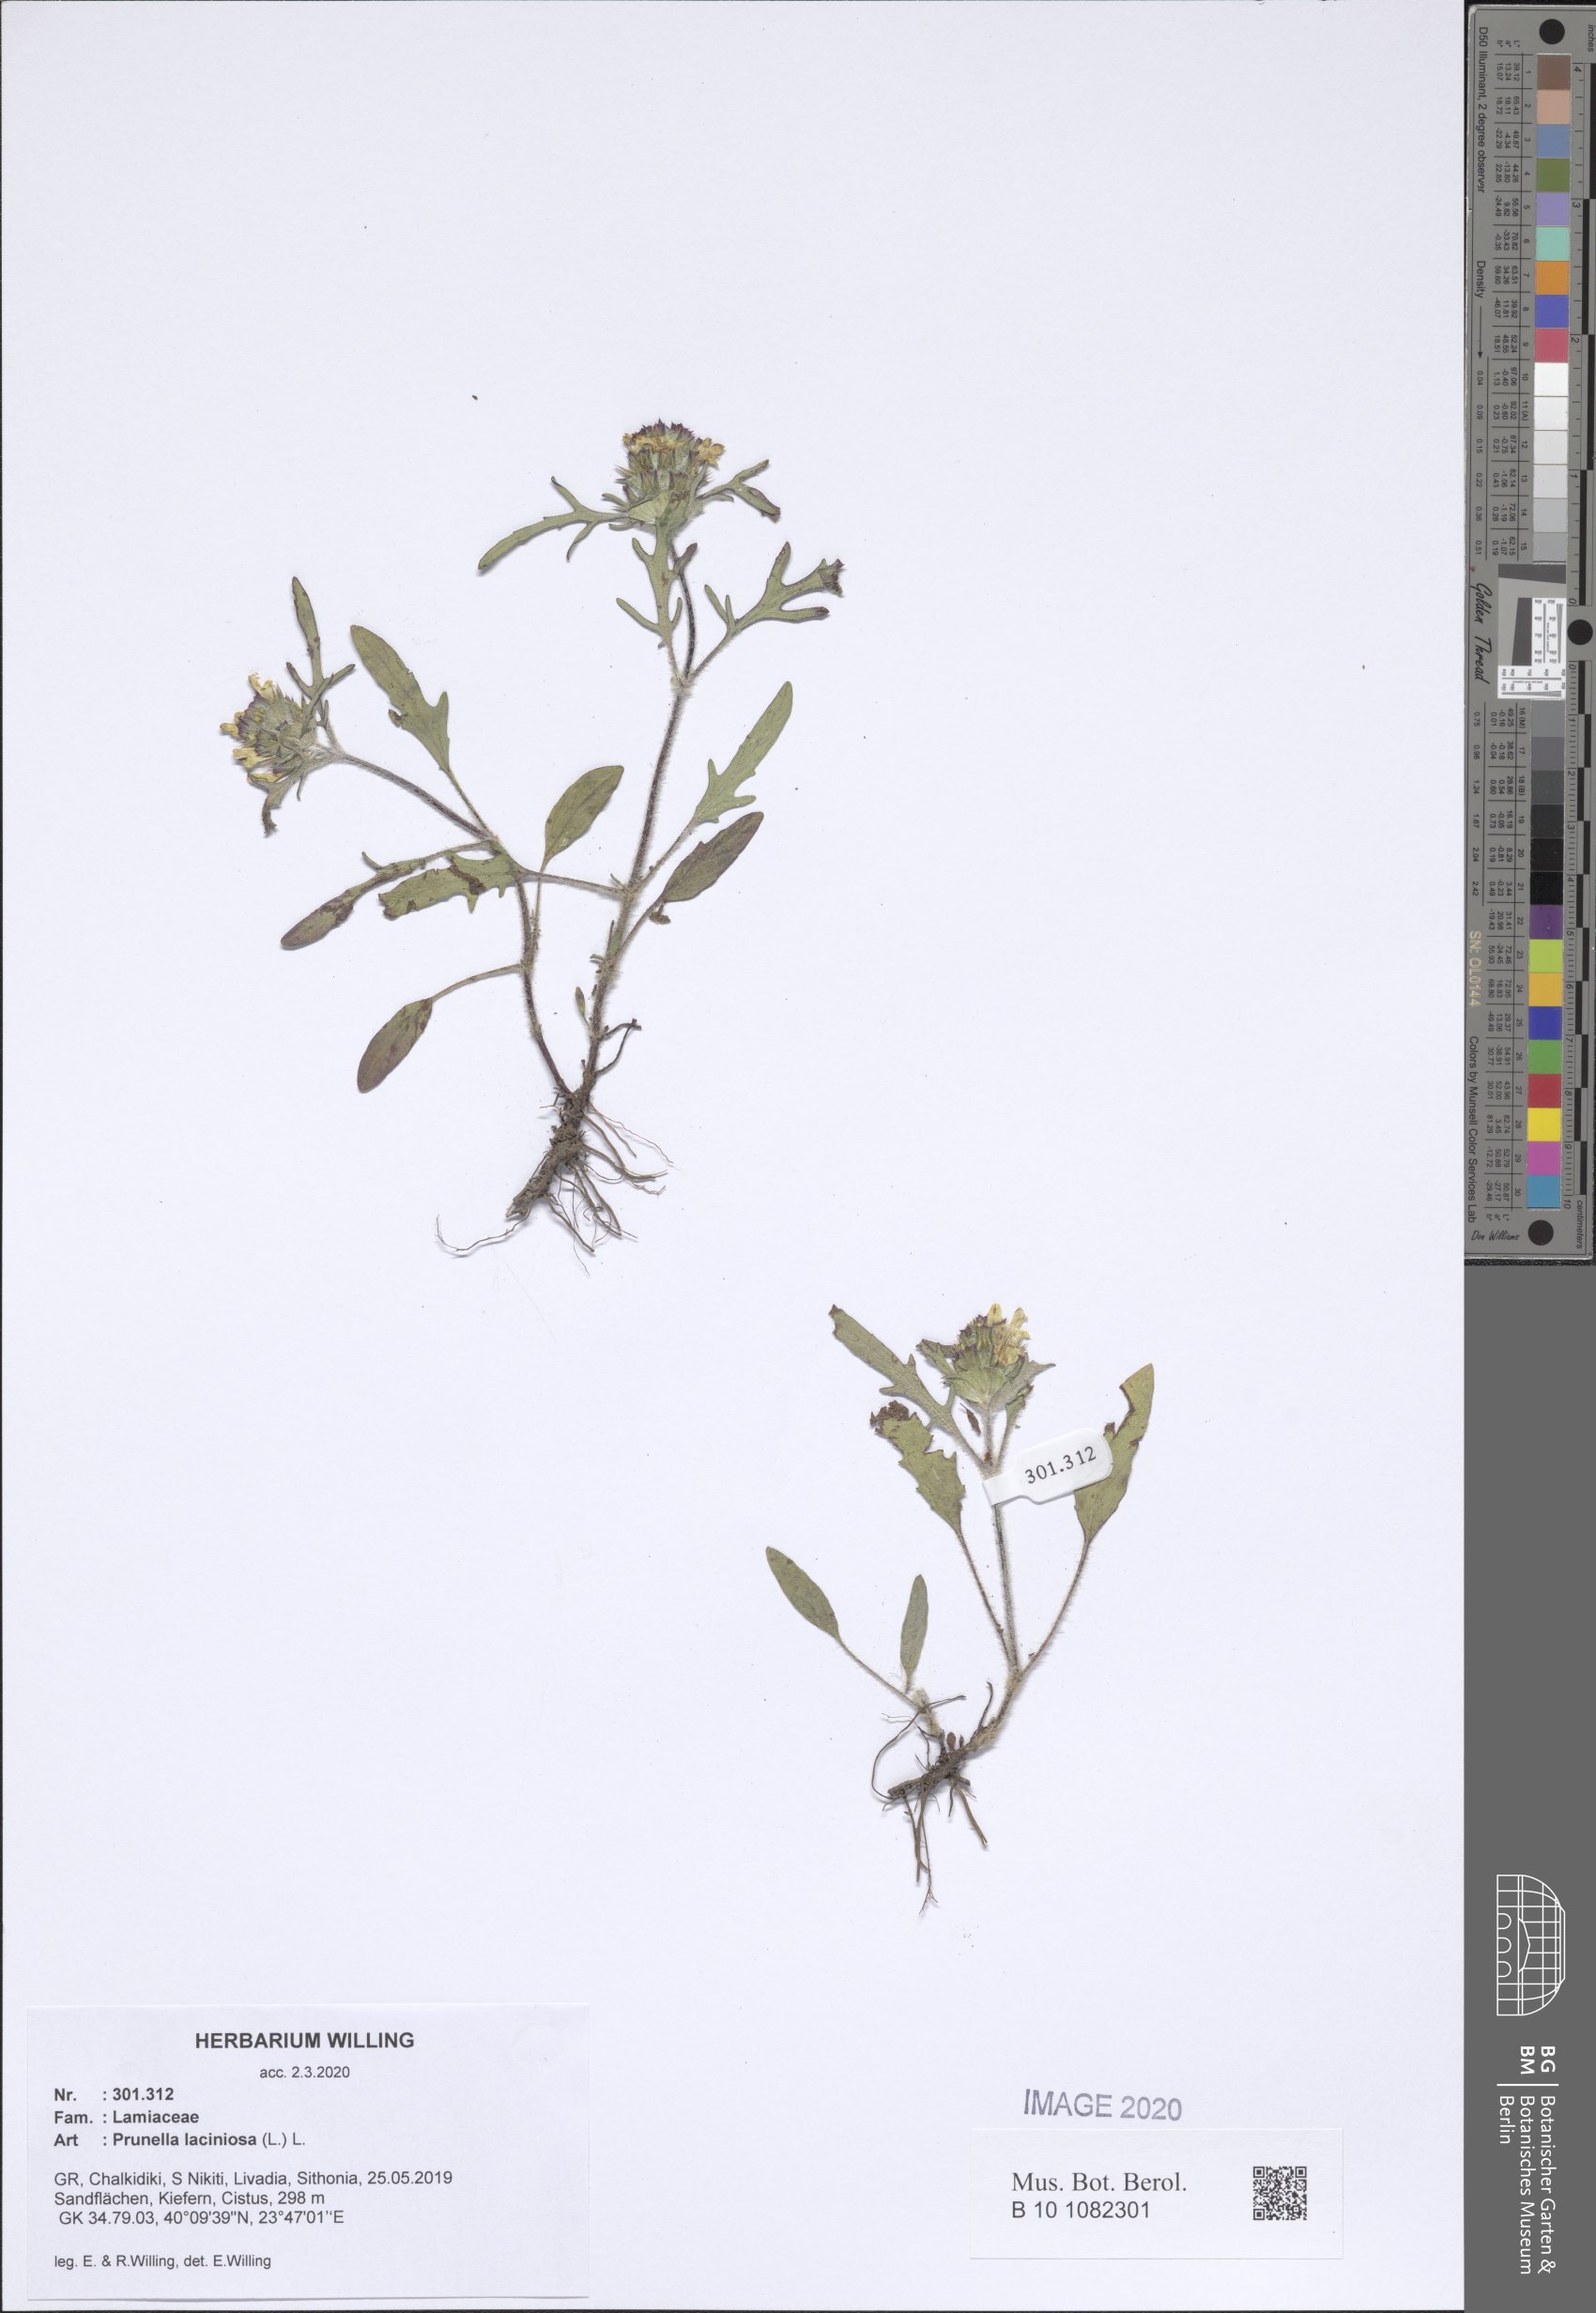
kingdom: Plantae
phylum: Tracheophyta
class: Magnoliopsida
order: Lamiales
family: Lamiaceae
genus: Prunella
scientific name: Prunella laciniata
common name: Cut-leaved selfheal
